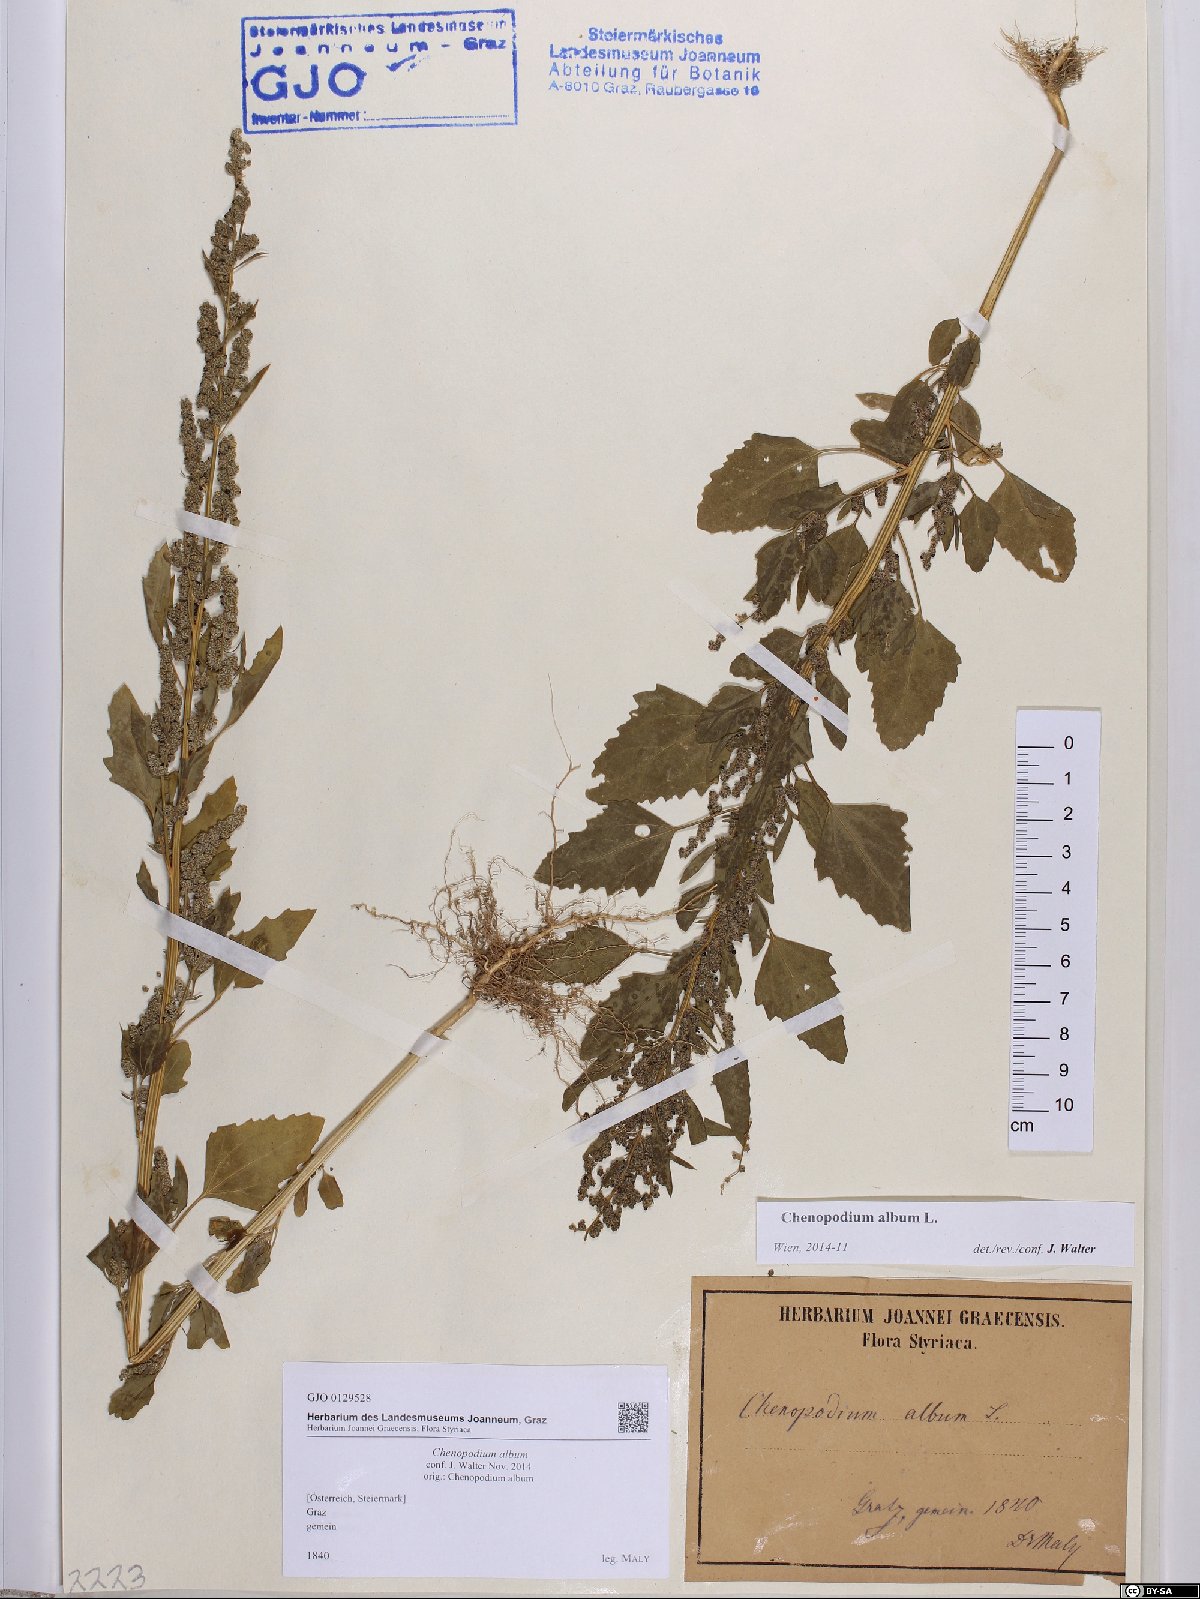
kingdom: Plantae
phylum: Tracheophyta
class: Magnoliopsida
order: Caryophyllales
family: Amaranthaceae
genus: Chenopodium
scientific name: Chenopodium album
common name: Fat-hen
